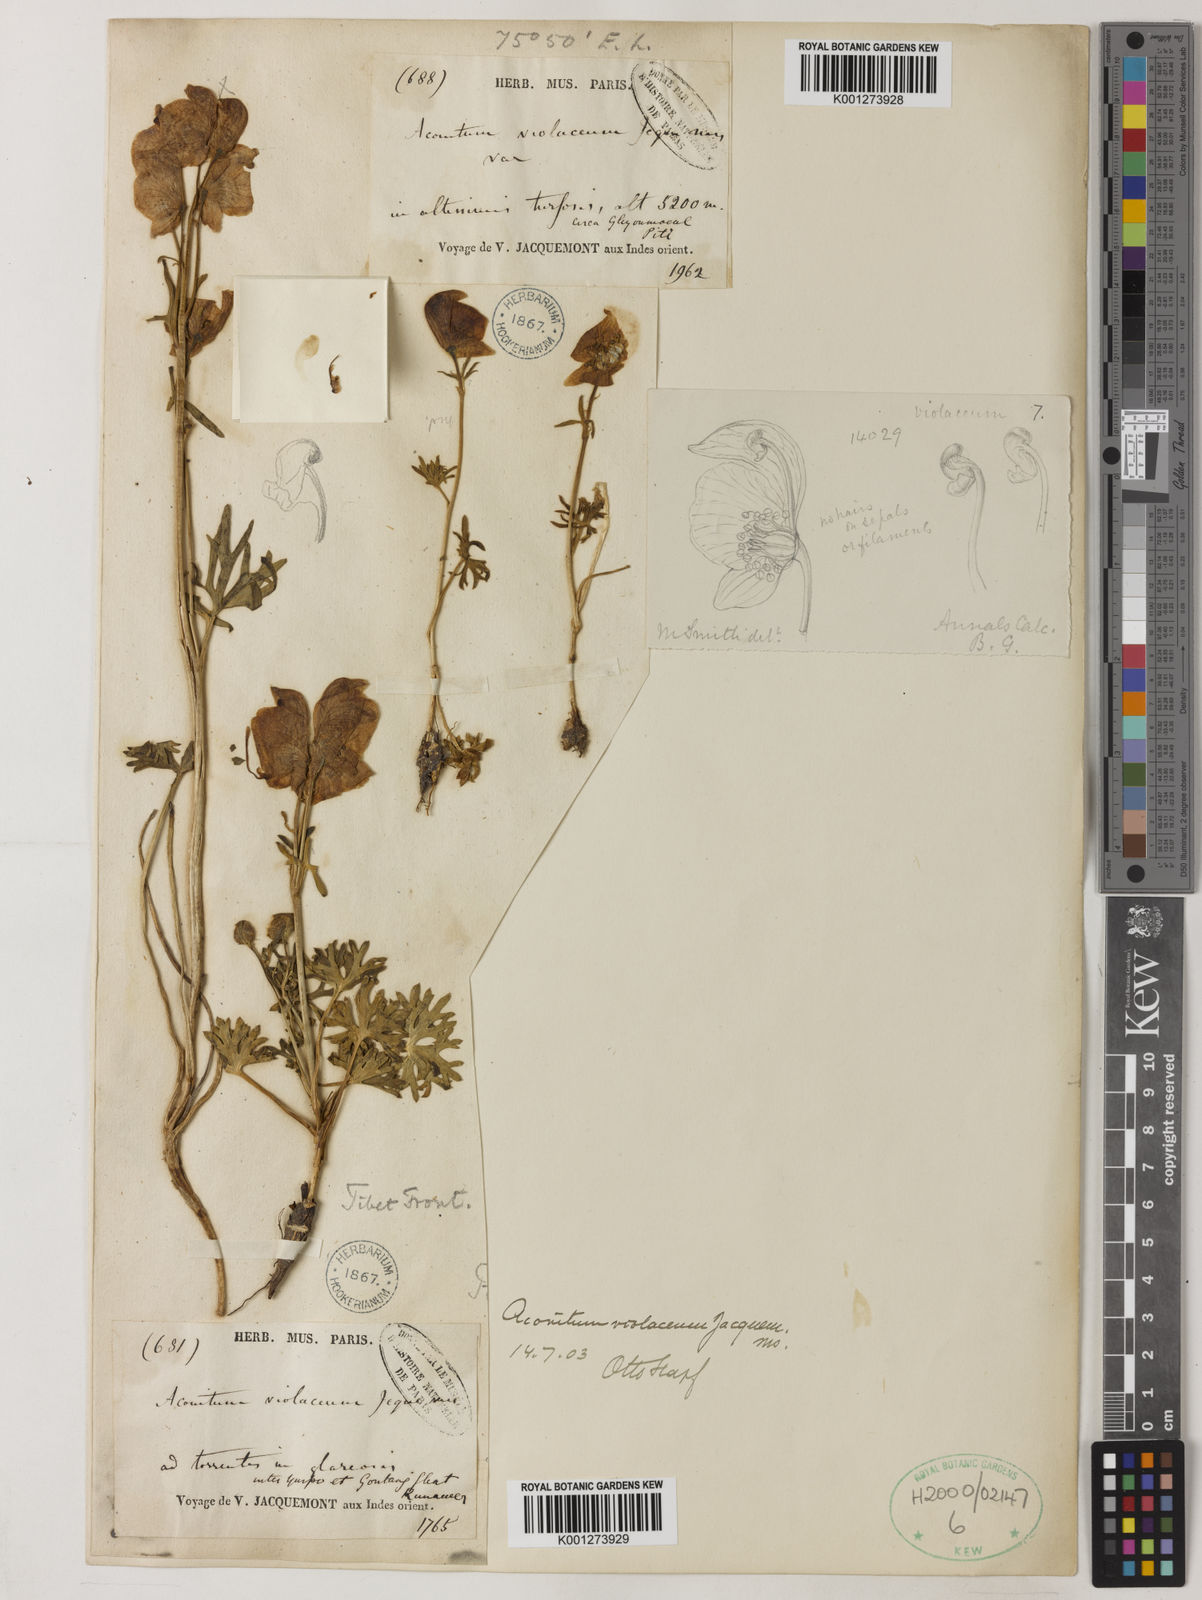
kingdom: Plantae
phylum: Tracheophyta
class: Magnoliopsida
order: Ranunculales
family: Ranunculaceae
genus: Aconitum
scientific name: Aconitum violaceum
